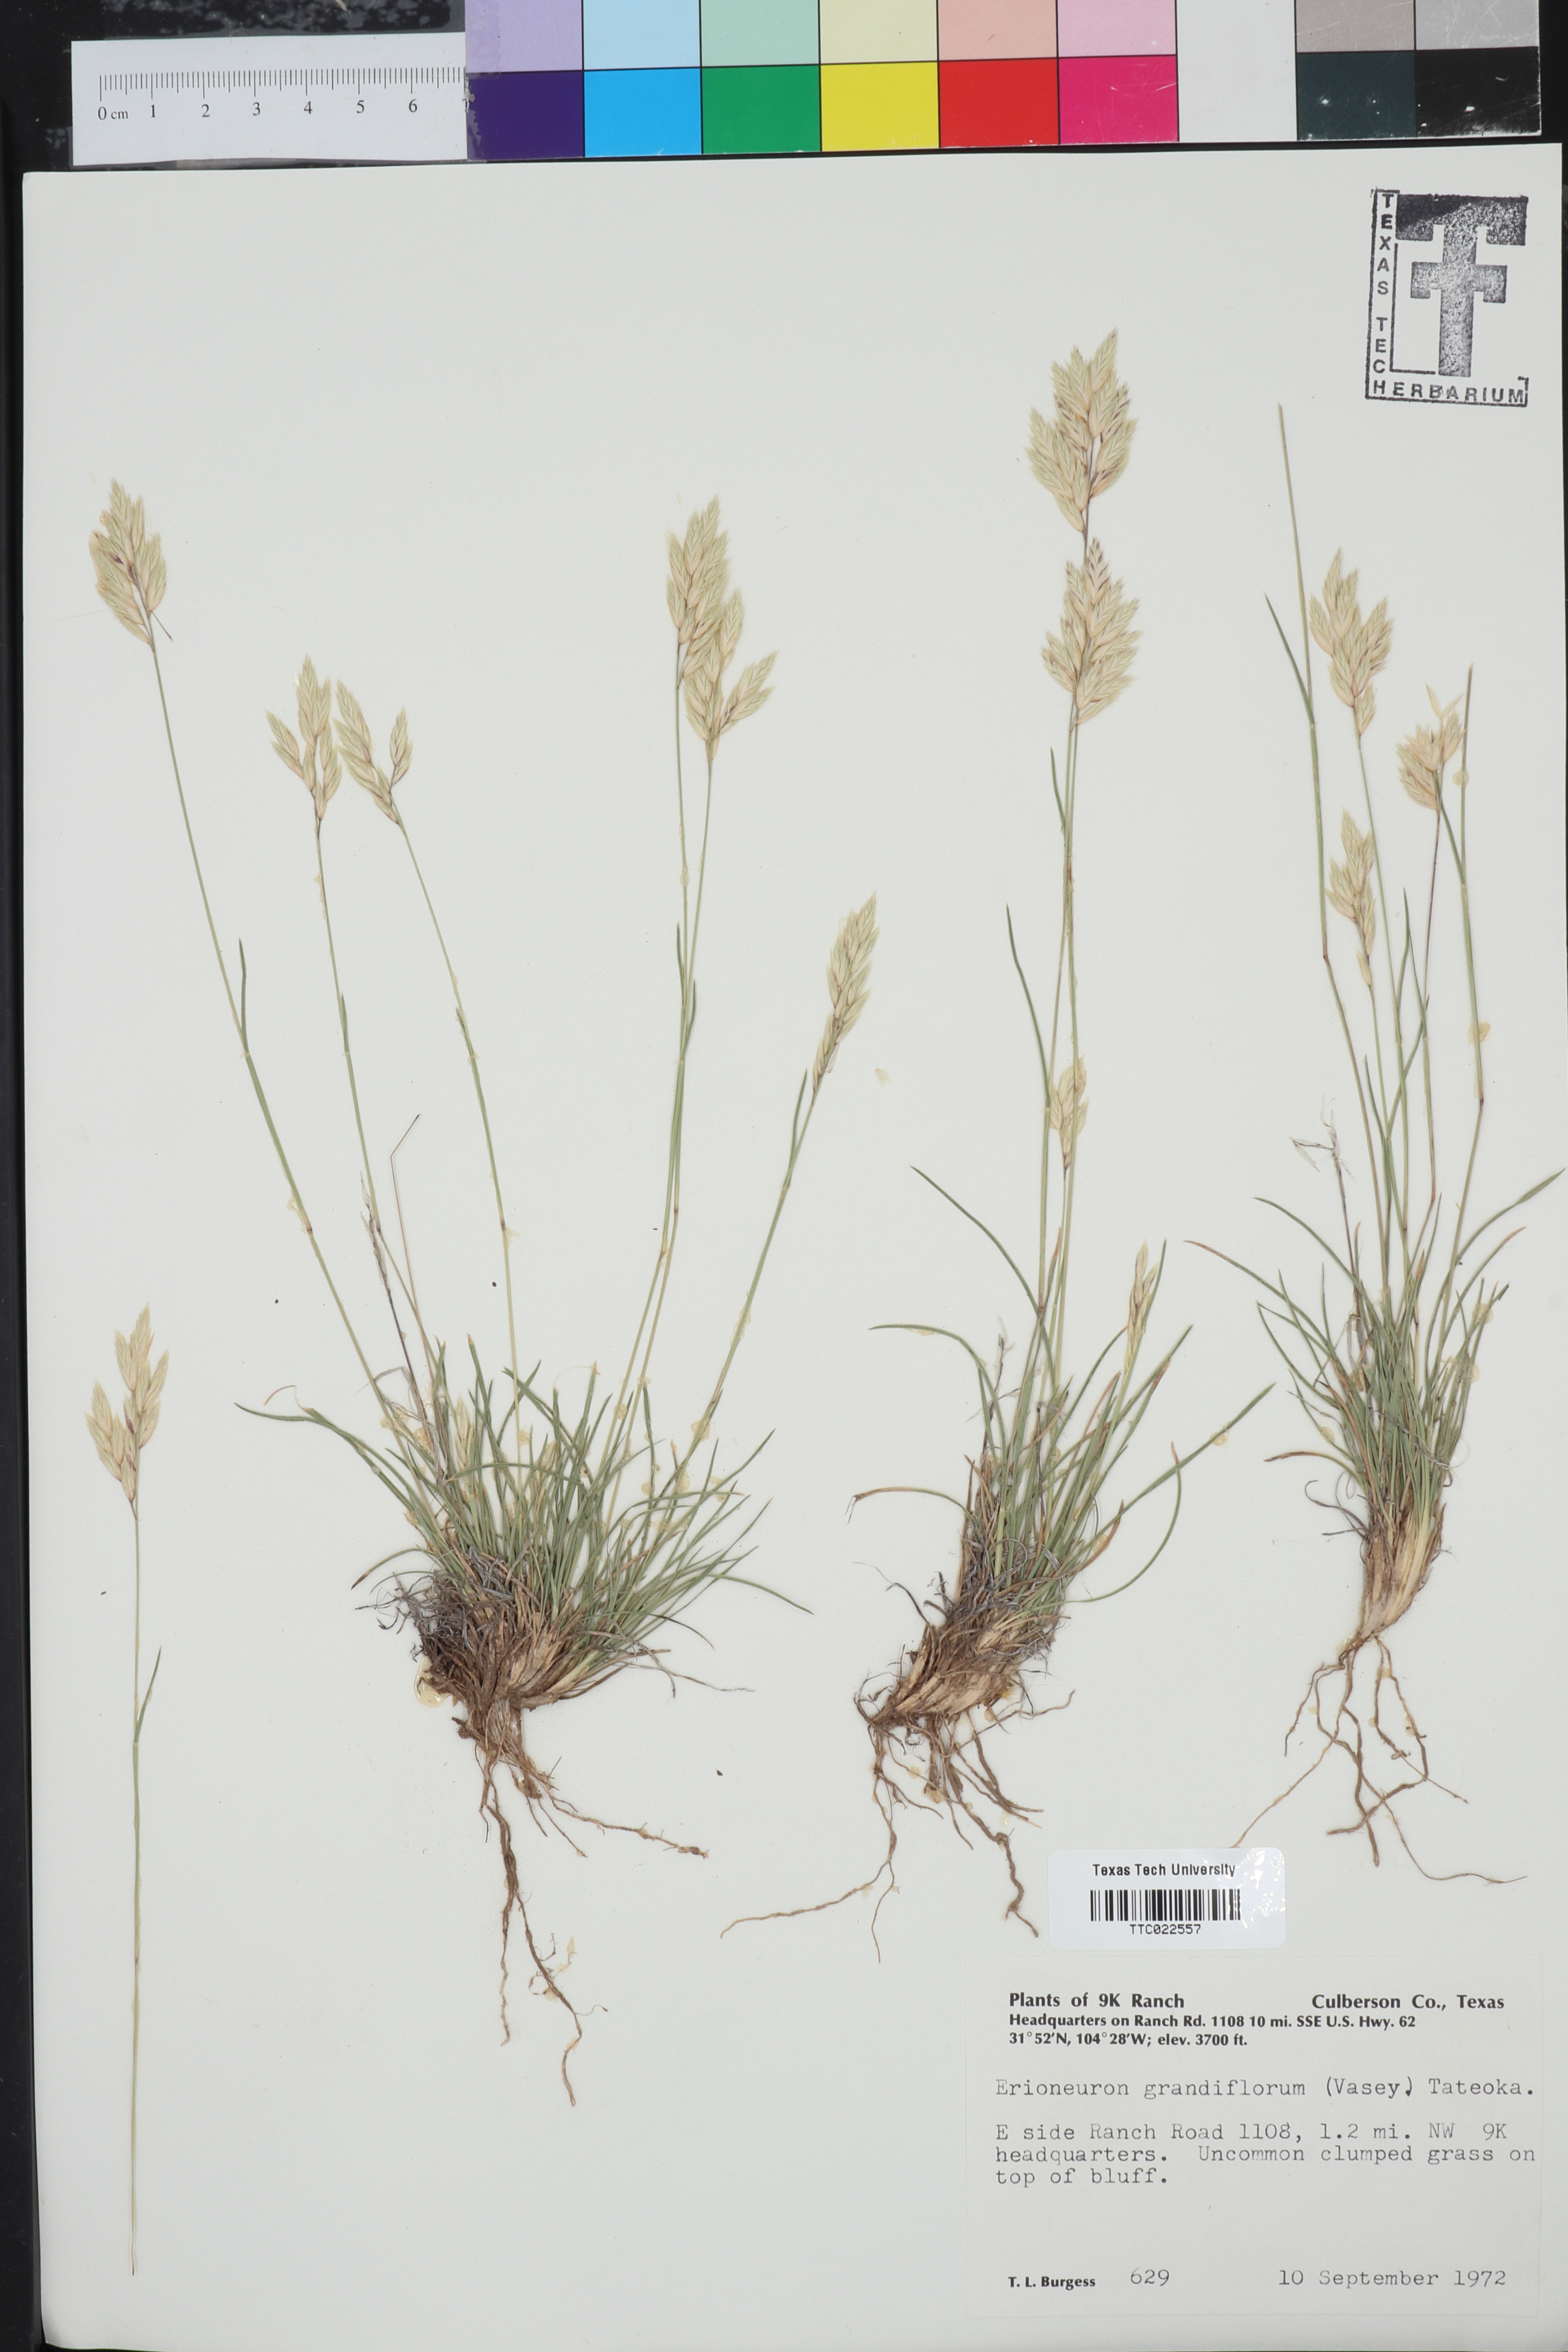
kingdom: Plantae
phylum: Tracheophyta
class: Liliopsida
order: Poales
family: Poaceae
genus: Erioneuron
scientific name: Erioneuron avenaceum
